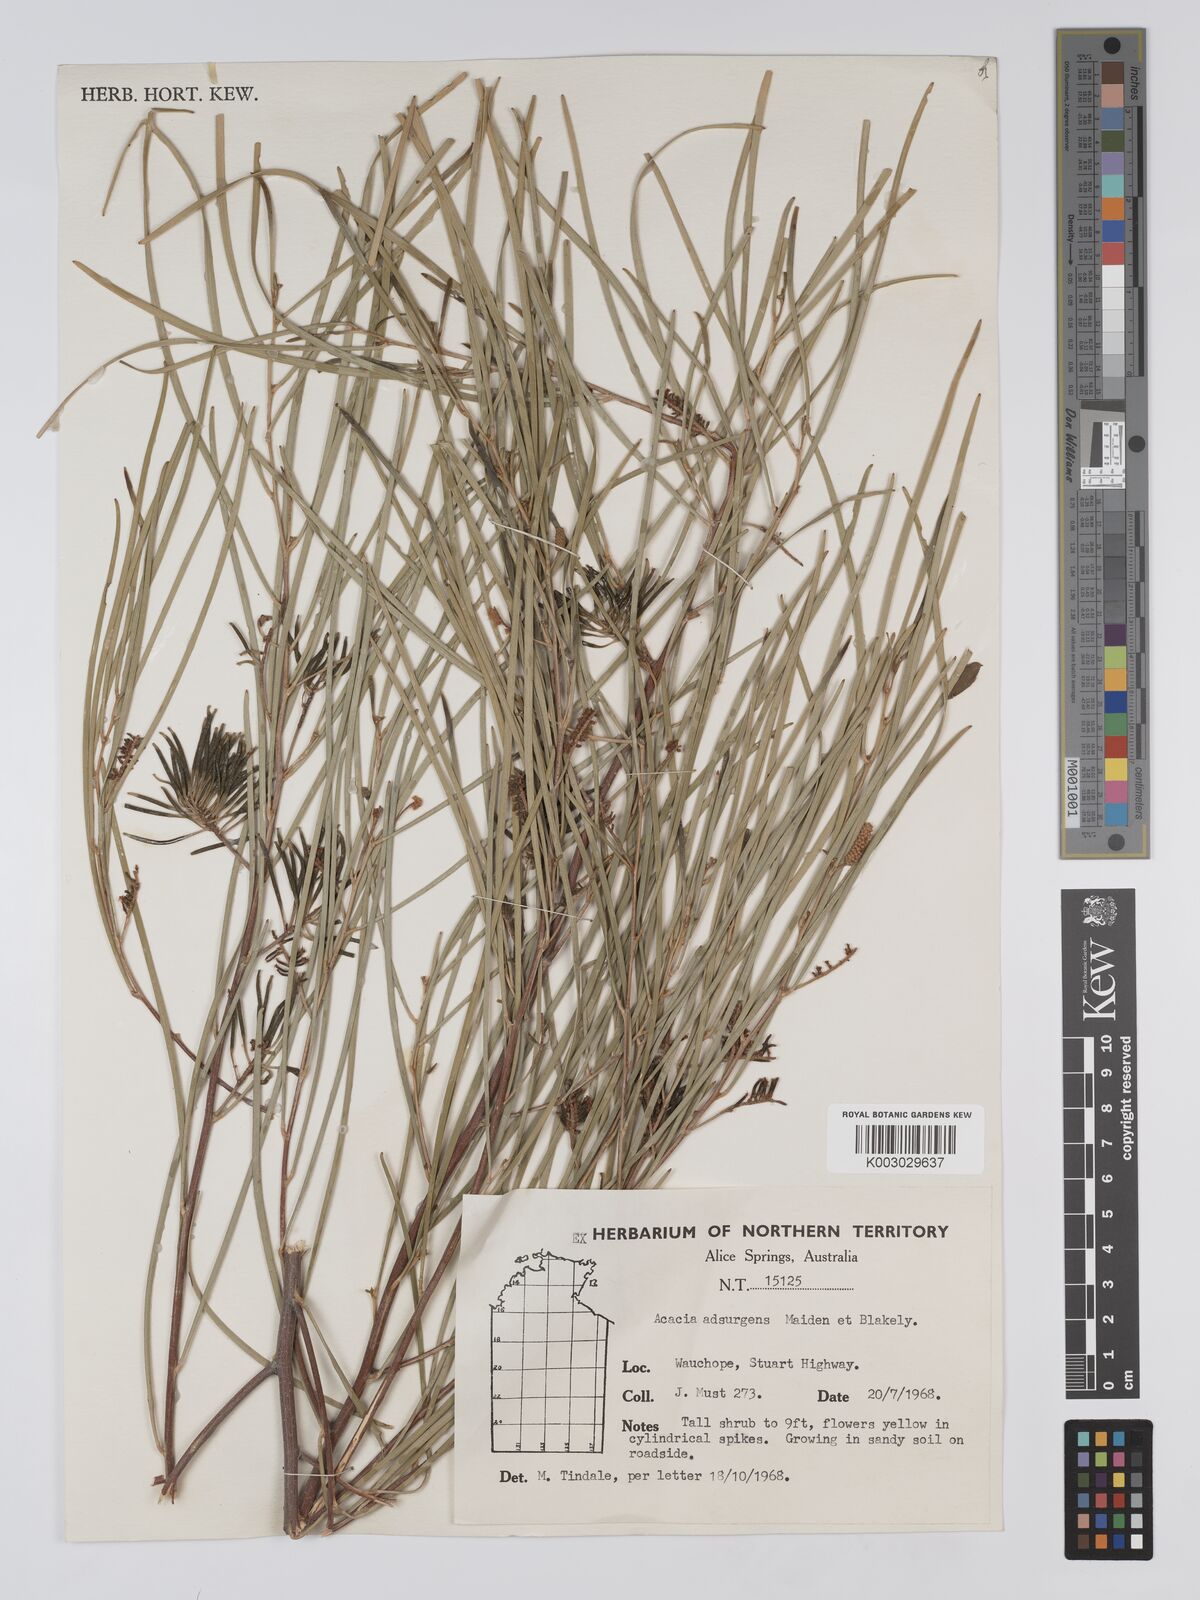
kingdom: Plantae
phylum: Tracheophyta
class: Magnoliopsida
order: Fabales
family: Fabaceae
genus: Acacia
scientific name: Acacia adsurgens
